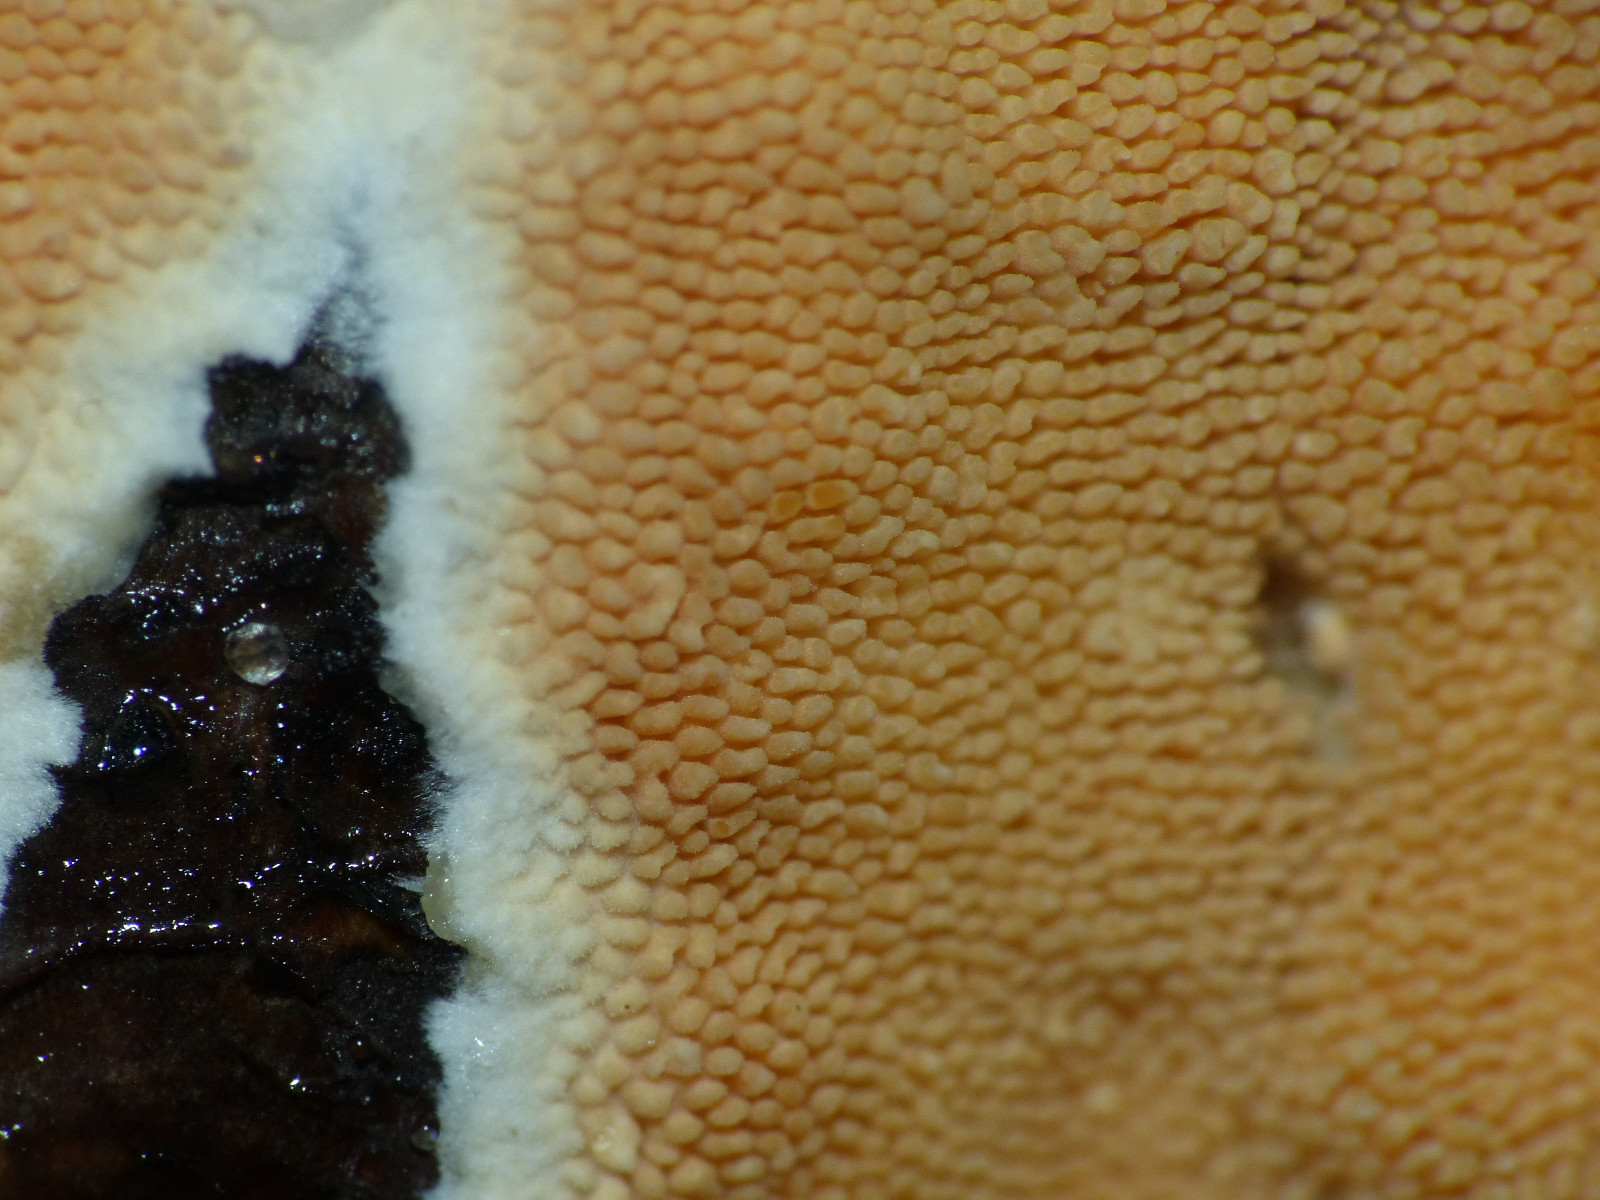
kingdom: Fungi
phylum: Basidiomycota
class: Agaricomycetes
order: Polyporales
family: Steccherinaceae
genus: Steccherinum
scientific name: Steccherinum ochraceum
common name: almindelig skønpig
